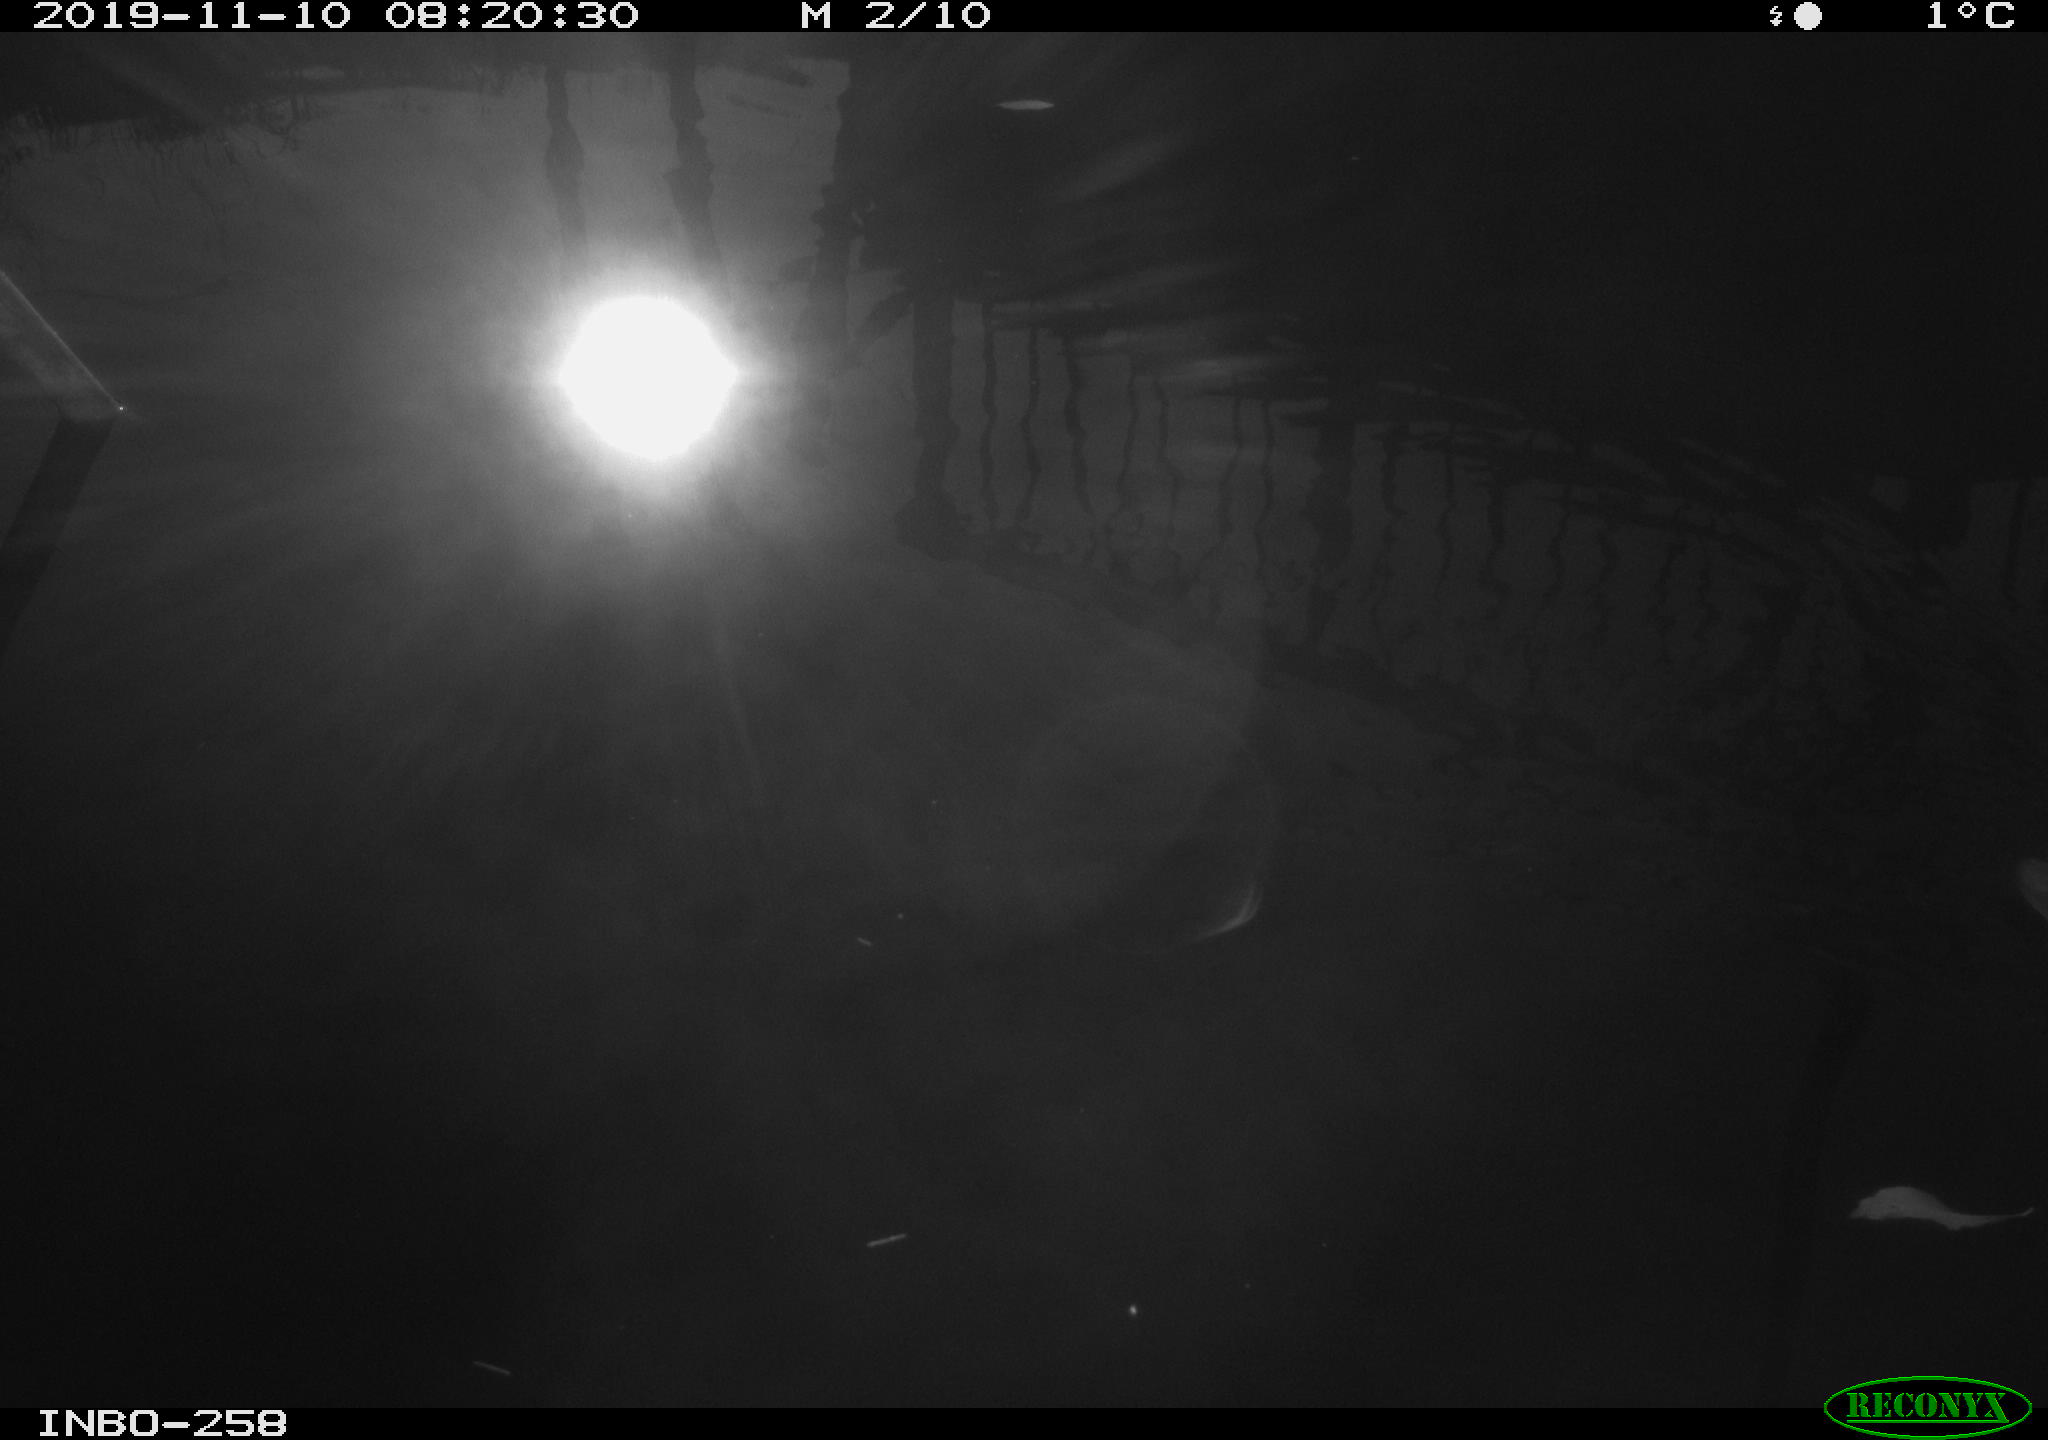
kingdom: Animalia
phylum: Chordata
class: Aves
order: Gruiformes
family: Rallidae
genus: Gallinula
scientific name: Gallinula chloropus
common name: Common moorhen
